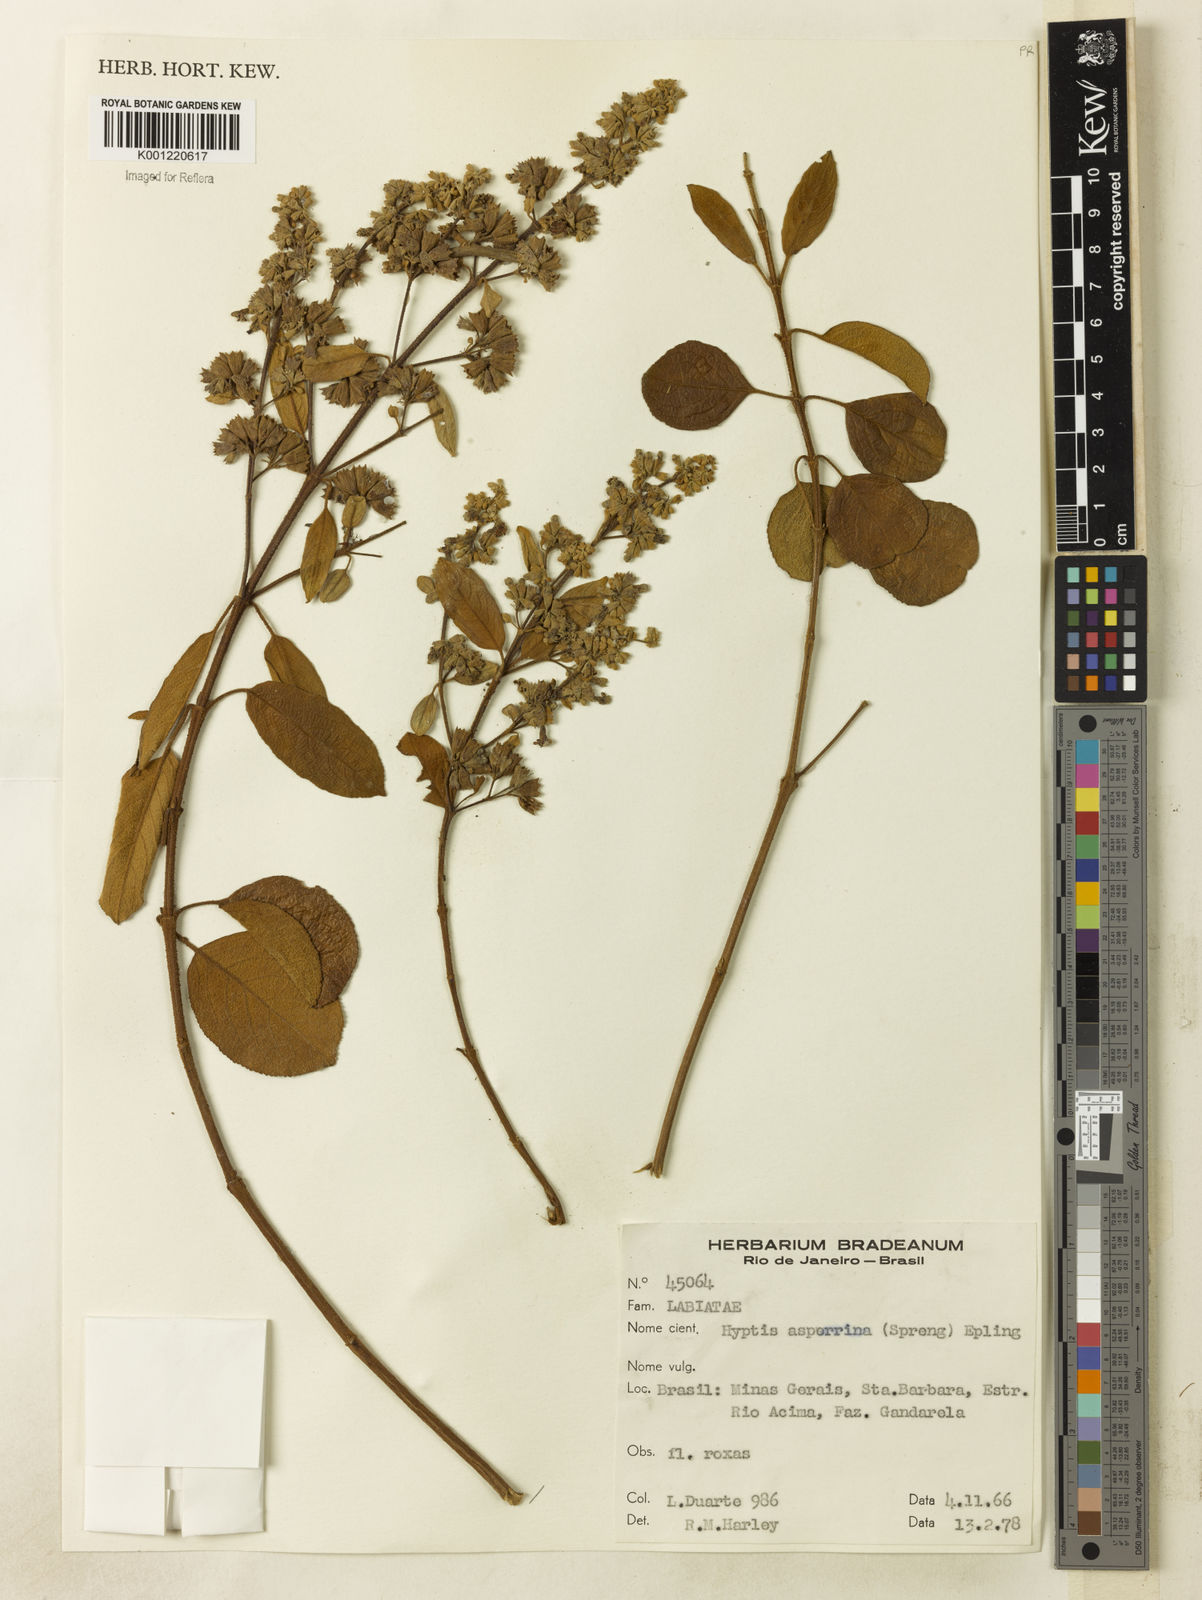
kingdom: Plantae
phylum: Tracheophyta
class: Magnoliopsida
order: Lamiales
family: Lamiaceae
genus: Hyptidendron
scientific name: Hyptidendron asperrimum
